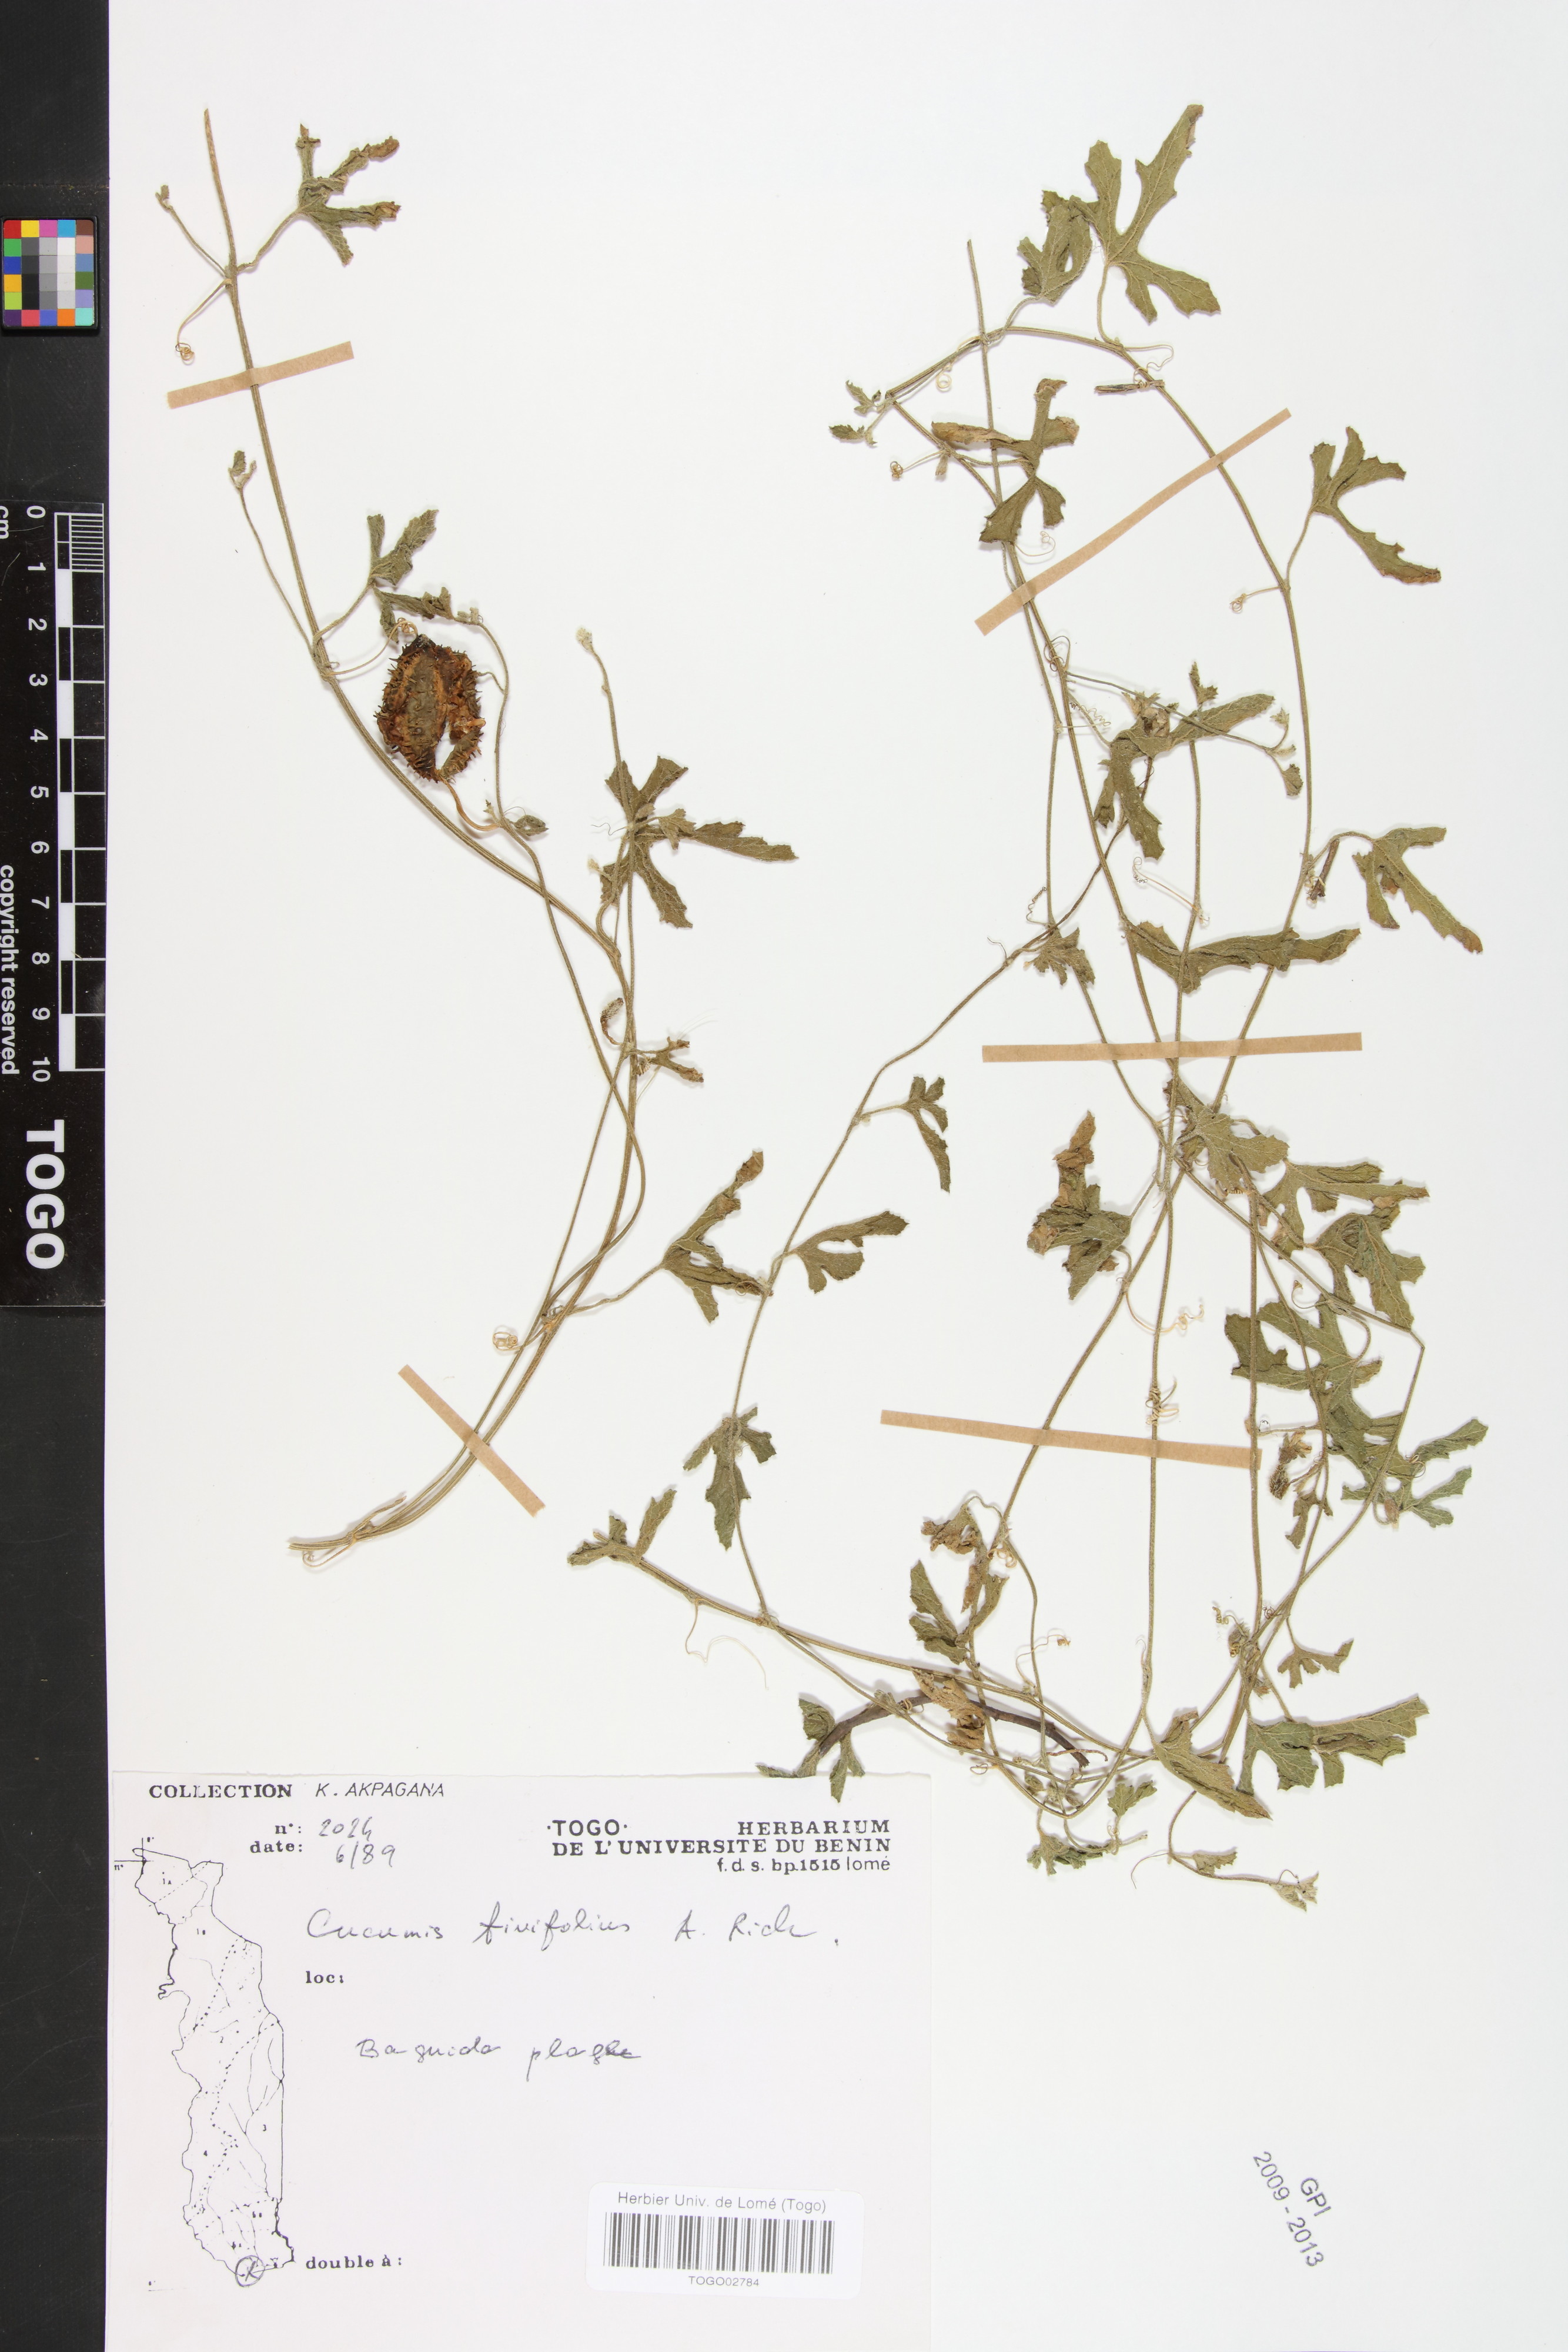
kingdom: Plantae
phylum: Tracheophyta
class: Magnoliopsida
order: Cucurbitales
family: Cucurbitaceae
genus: Cucumis
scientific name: Cucumis ficifolius
